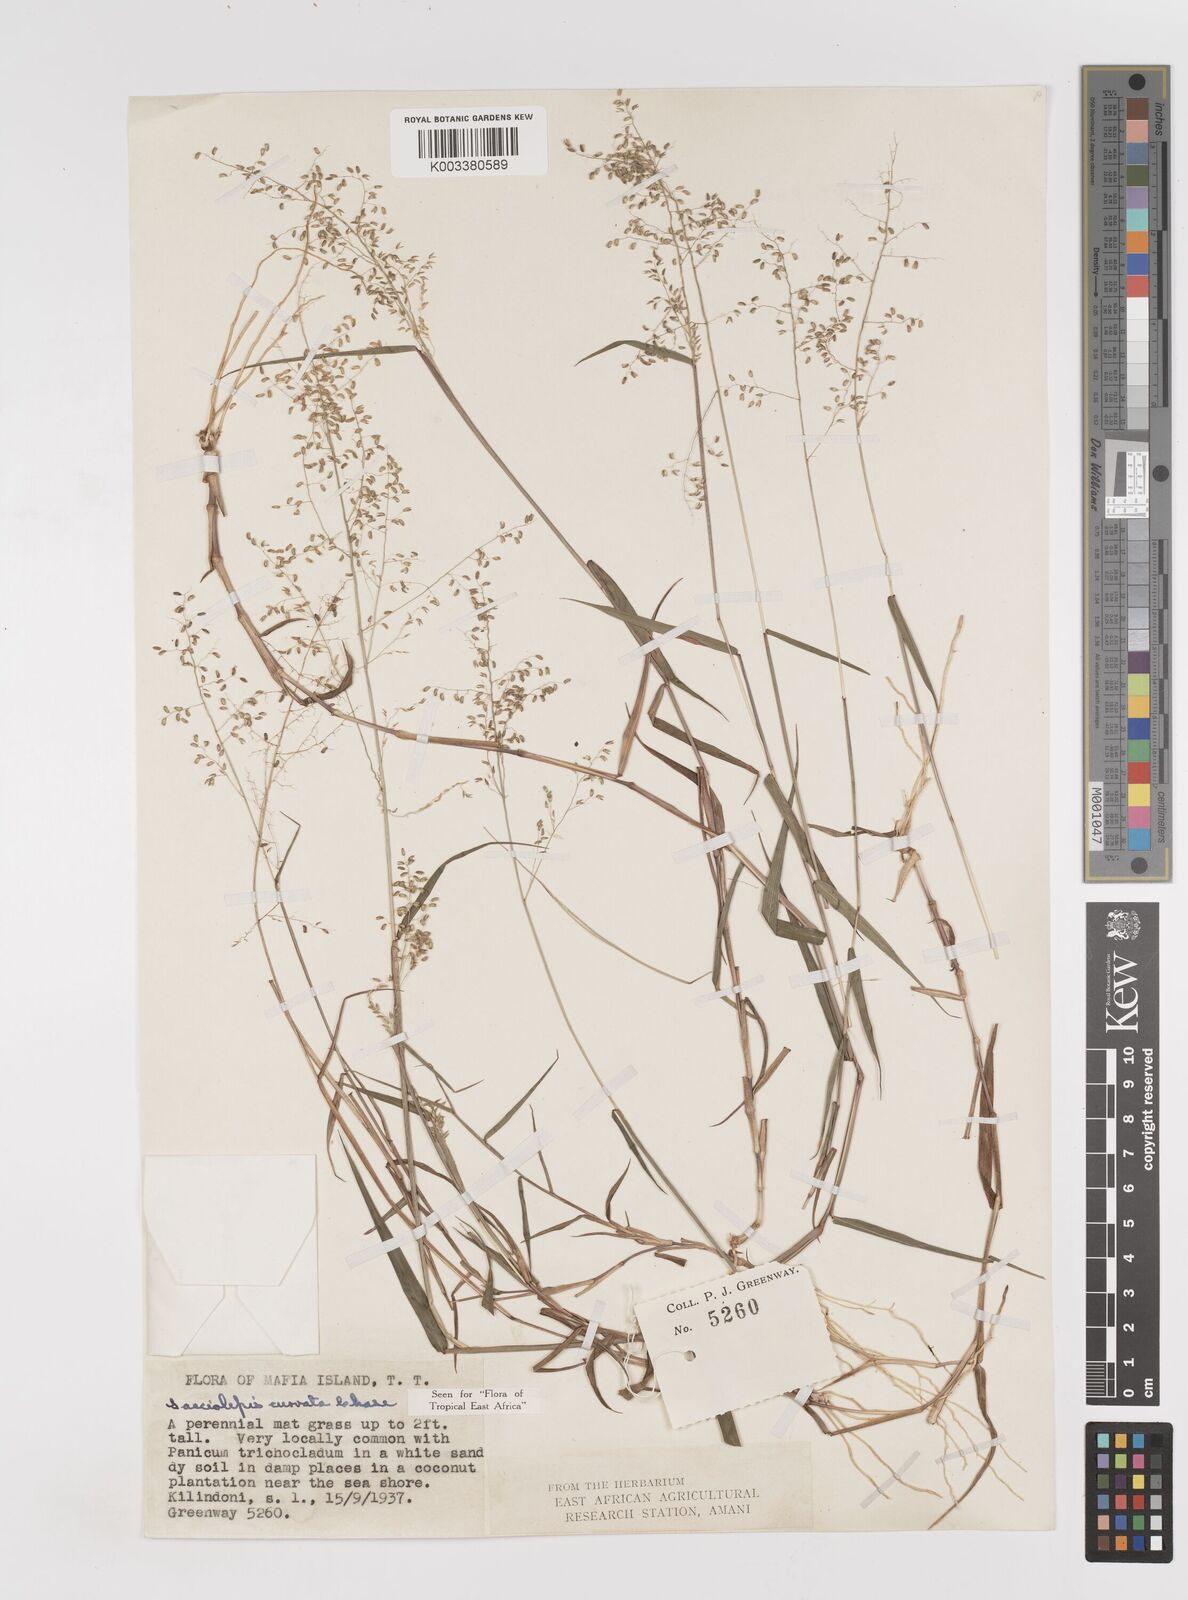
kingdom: Plantae
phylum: Tracheophyta
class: Liliopsida
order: Poales
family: Poaceae
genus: Sacciolepis
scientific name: Sacciolepis curvata
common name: Forest hood grass
